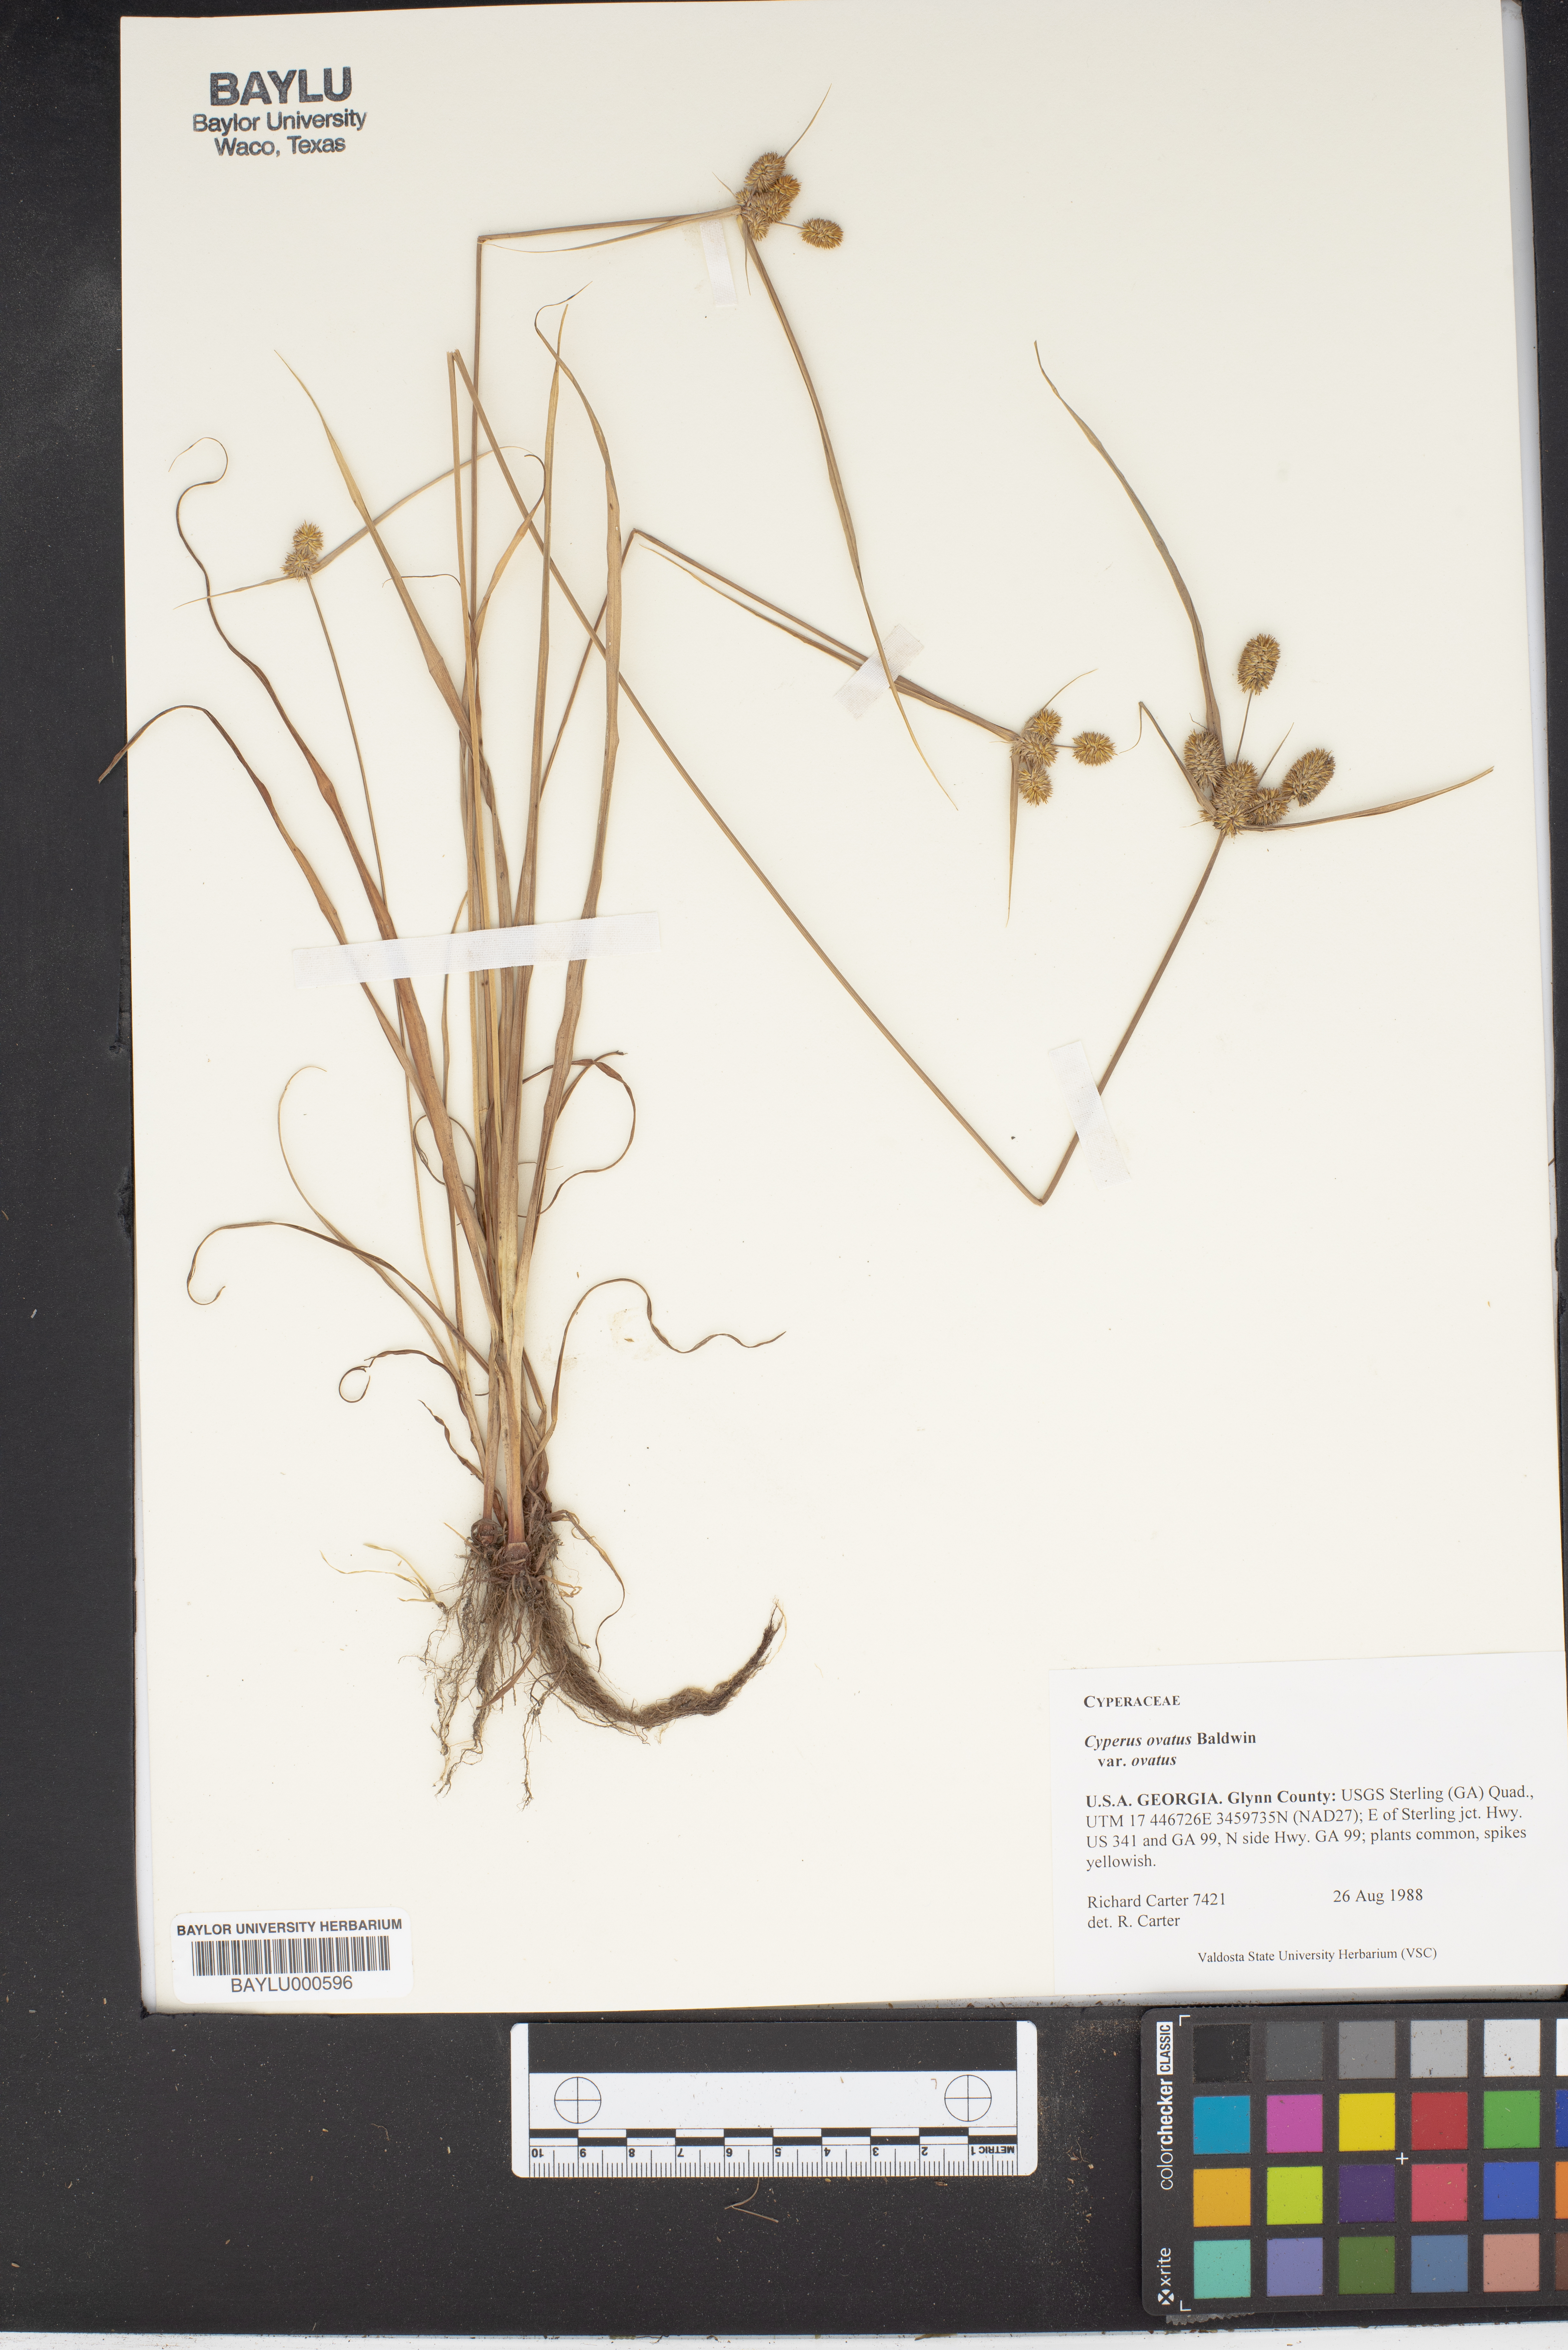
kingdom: Plantae
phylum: Tracheophyta
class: Liliopsida
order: Poales
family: Cyperaceae
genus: Cyperus
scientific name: Cyperus ovatus
